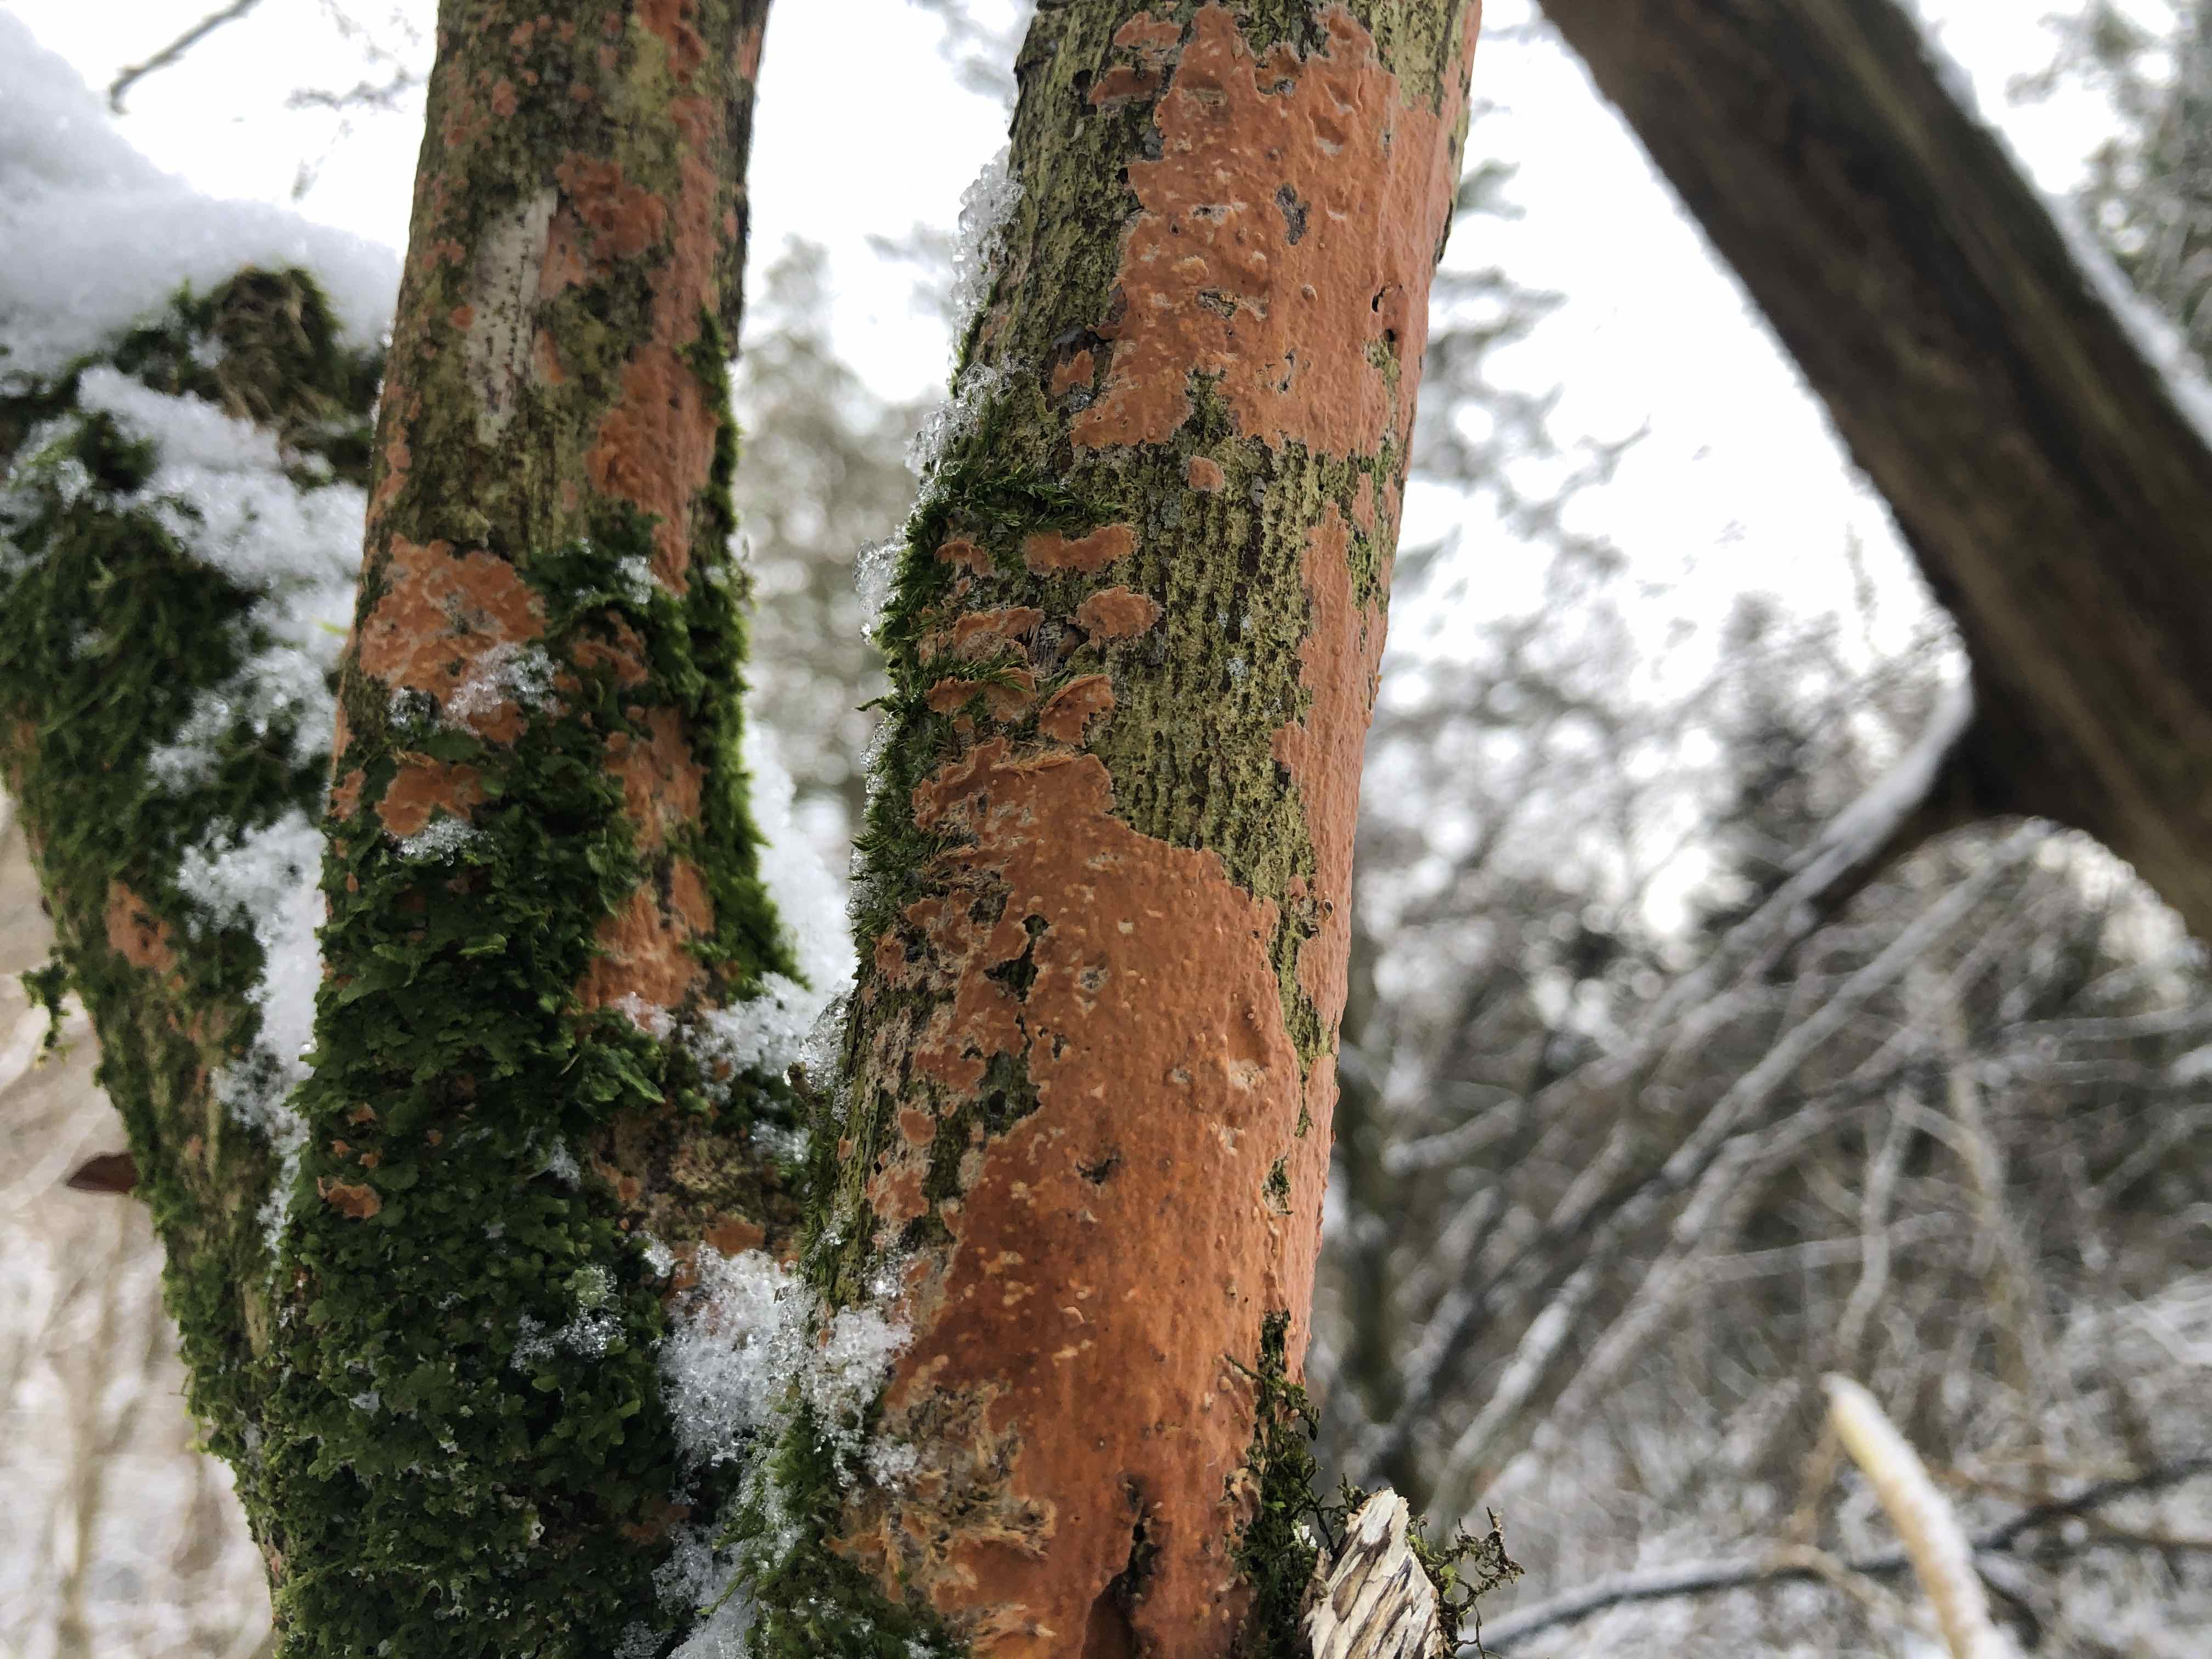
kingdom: Fungi
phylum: Basidiomycota
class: Agaricomycetes
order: Russulales
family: Peniophoraceae
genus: Peniophora
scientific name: Peniophora incarnata
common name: laksefarvet voksskind
